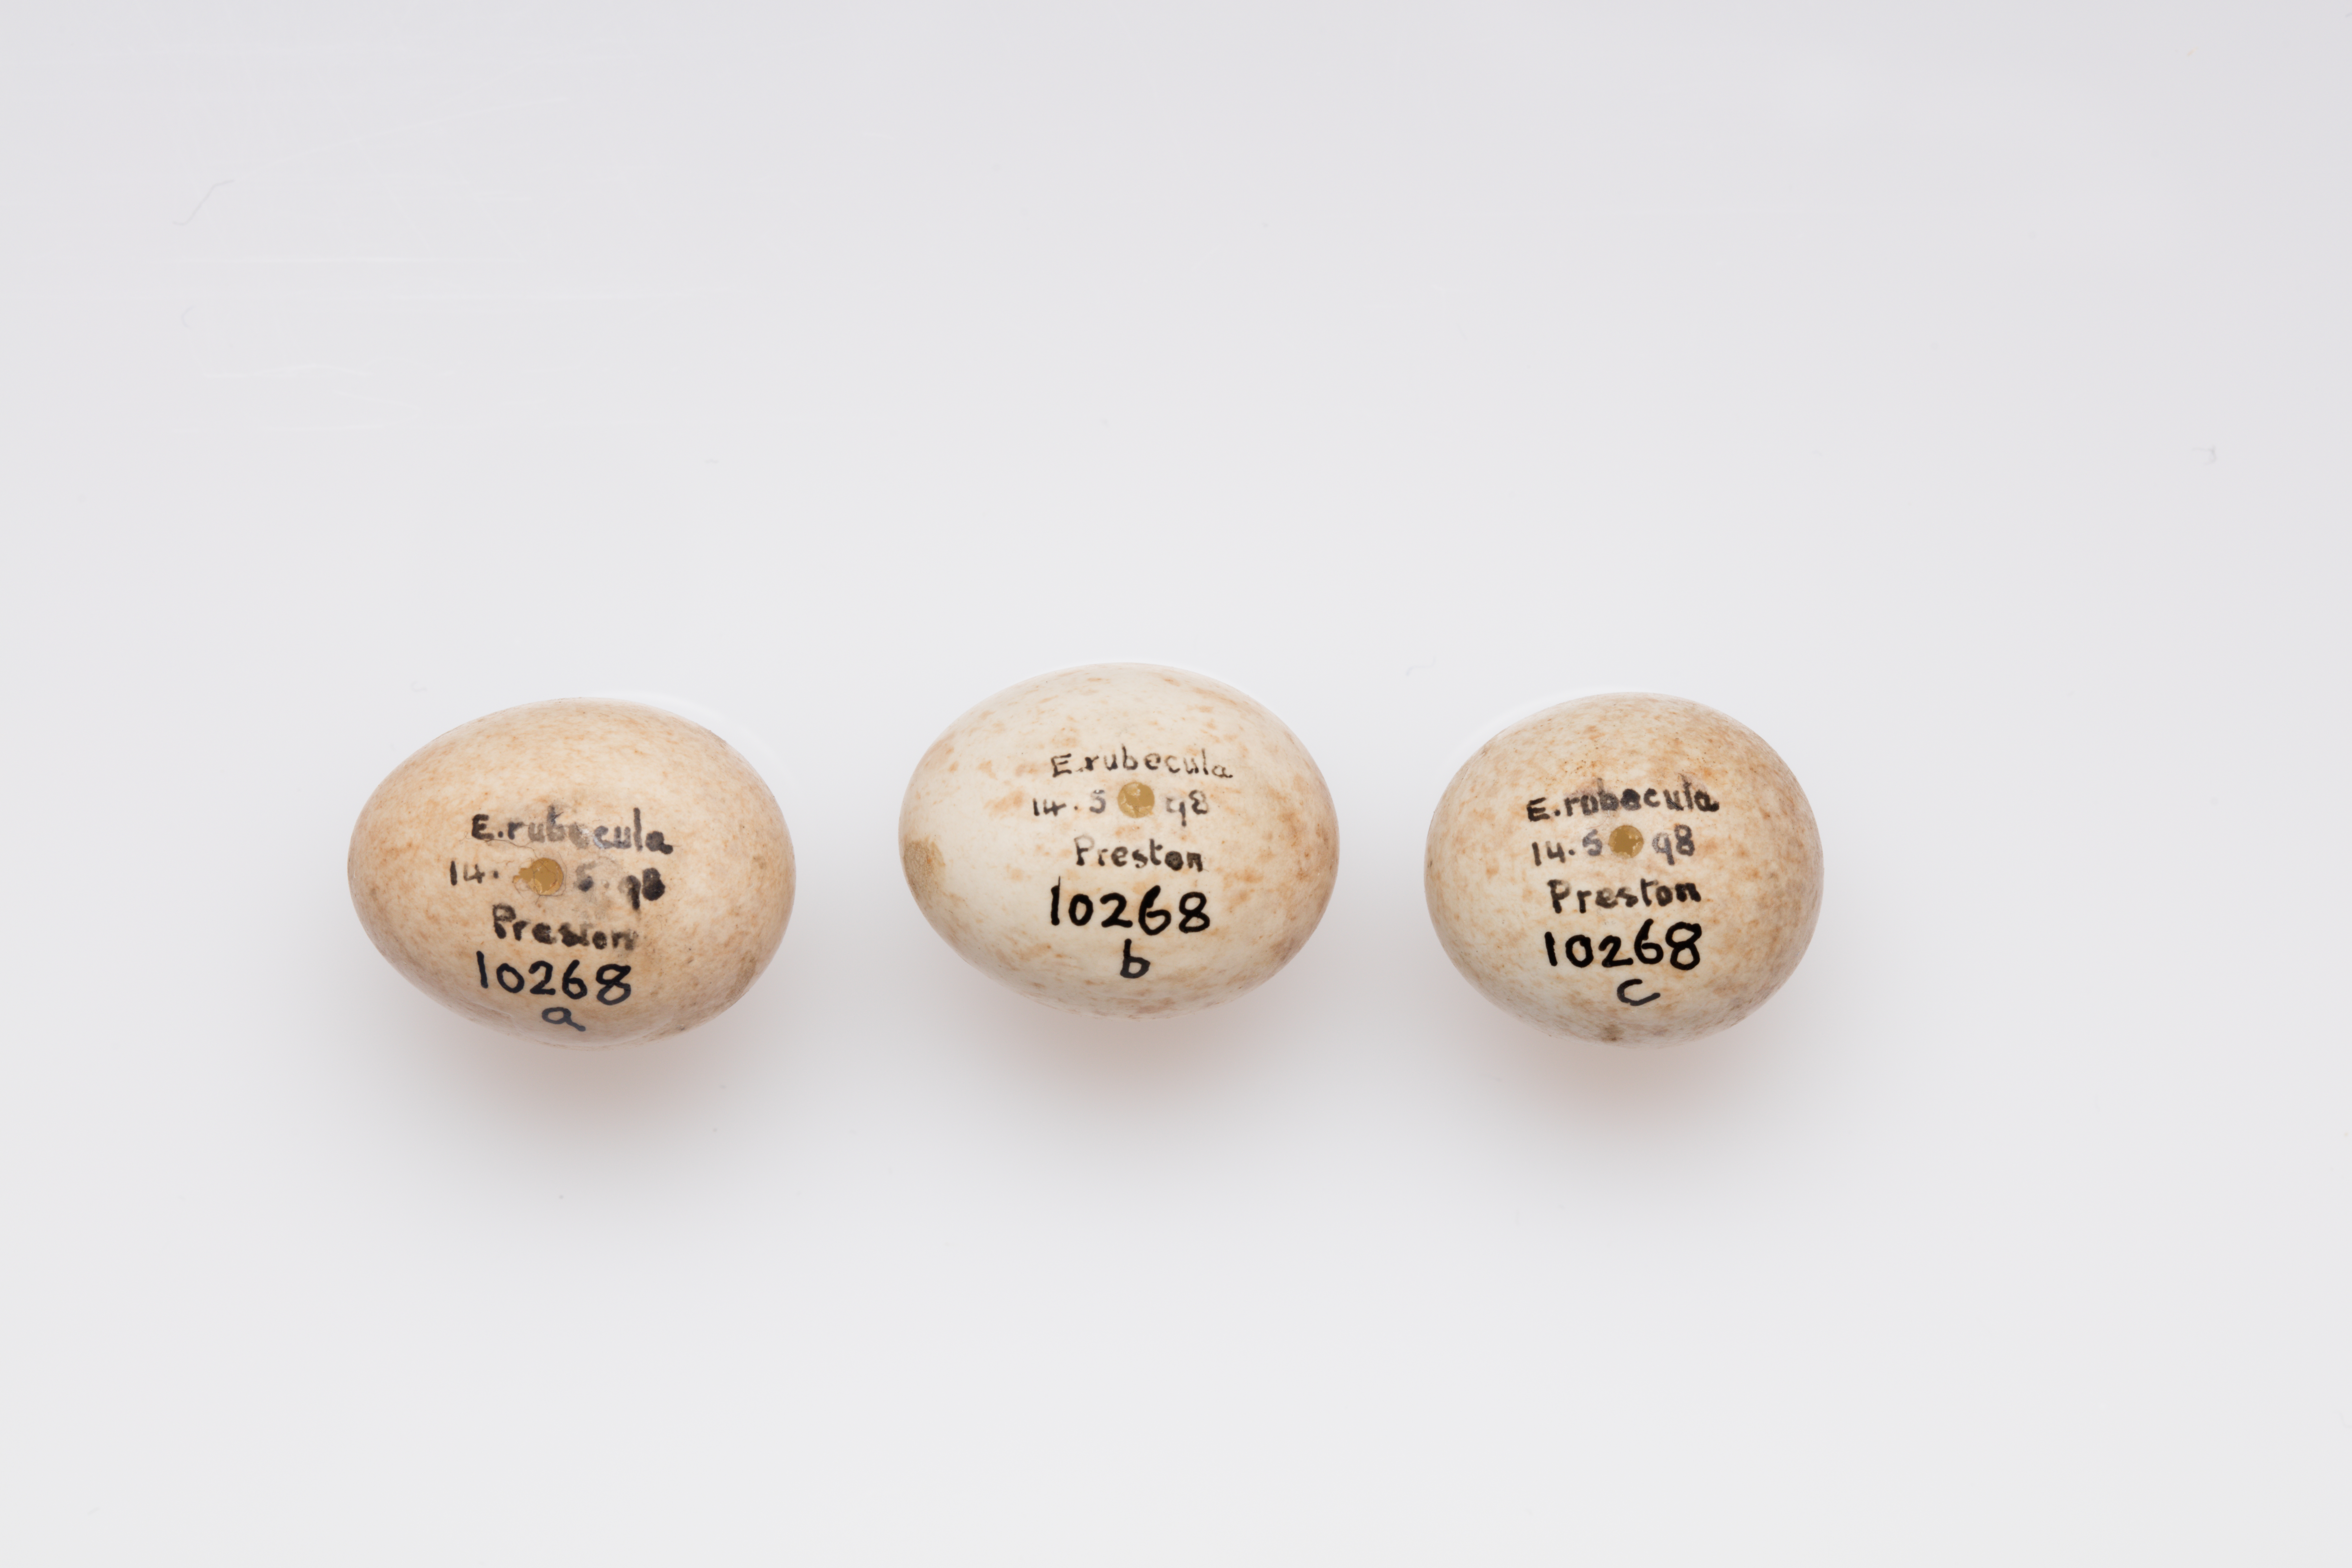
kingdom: Animalia
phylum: Chordata
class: Aves
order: Passeriformes
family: Muscicapidae
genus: Erithacus
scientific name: Erithacus rubecula
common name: European robin
